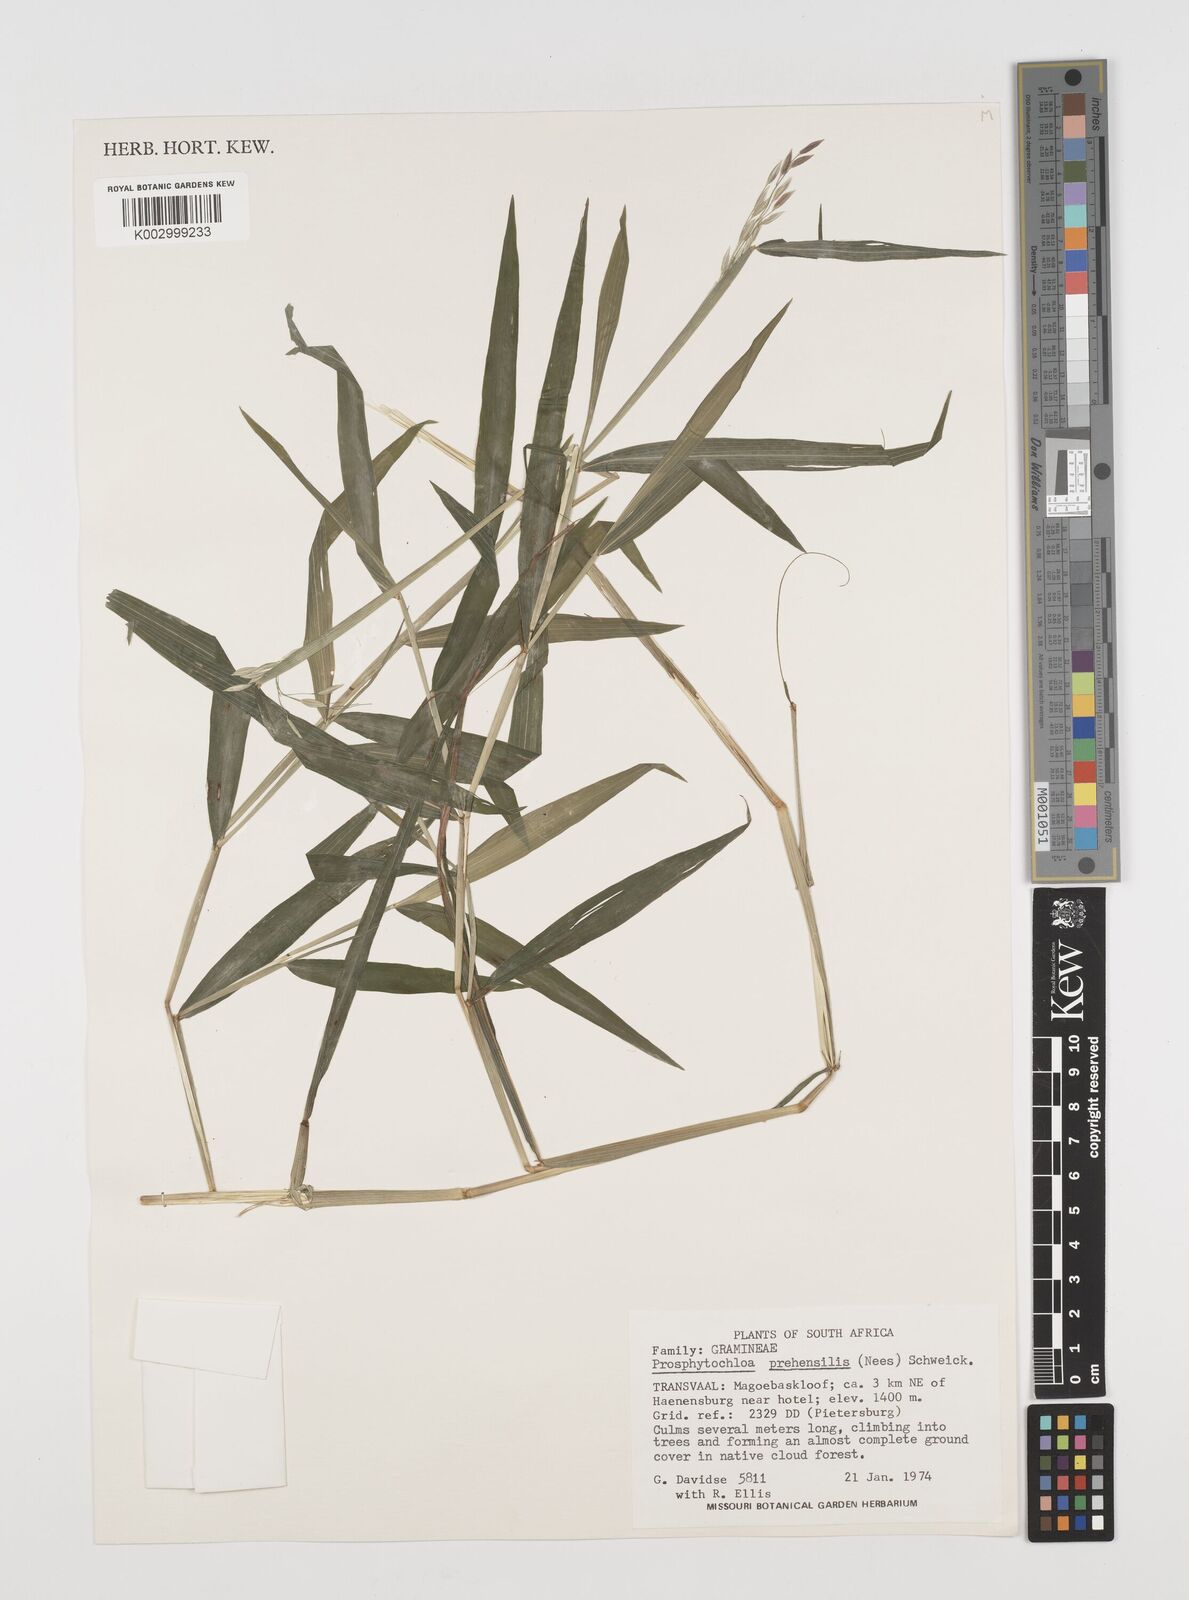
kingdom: Plantae
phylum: Tracheophyta
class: Liliopsida
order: Poales
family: Poaceae
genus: Prosphytochloa
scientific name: Prosphytochloa prehensilis
